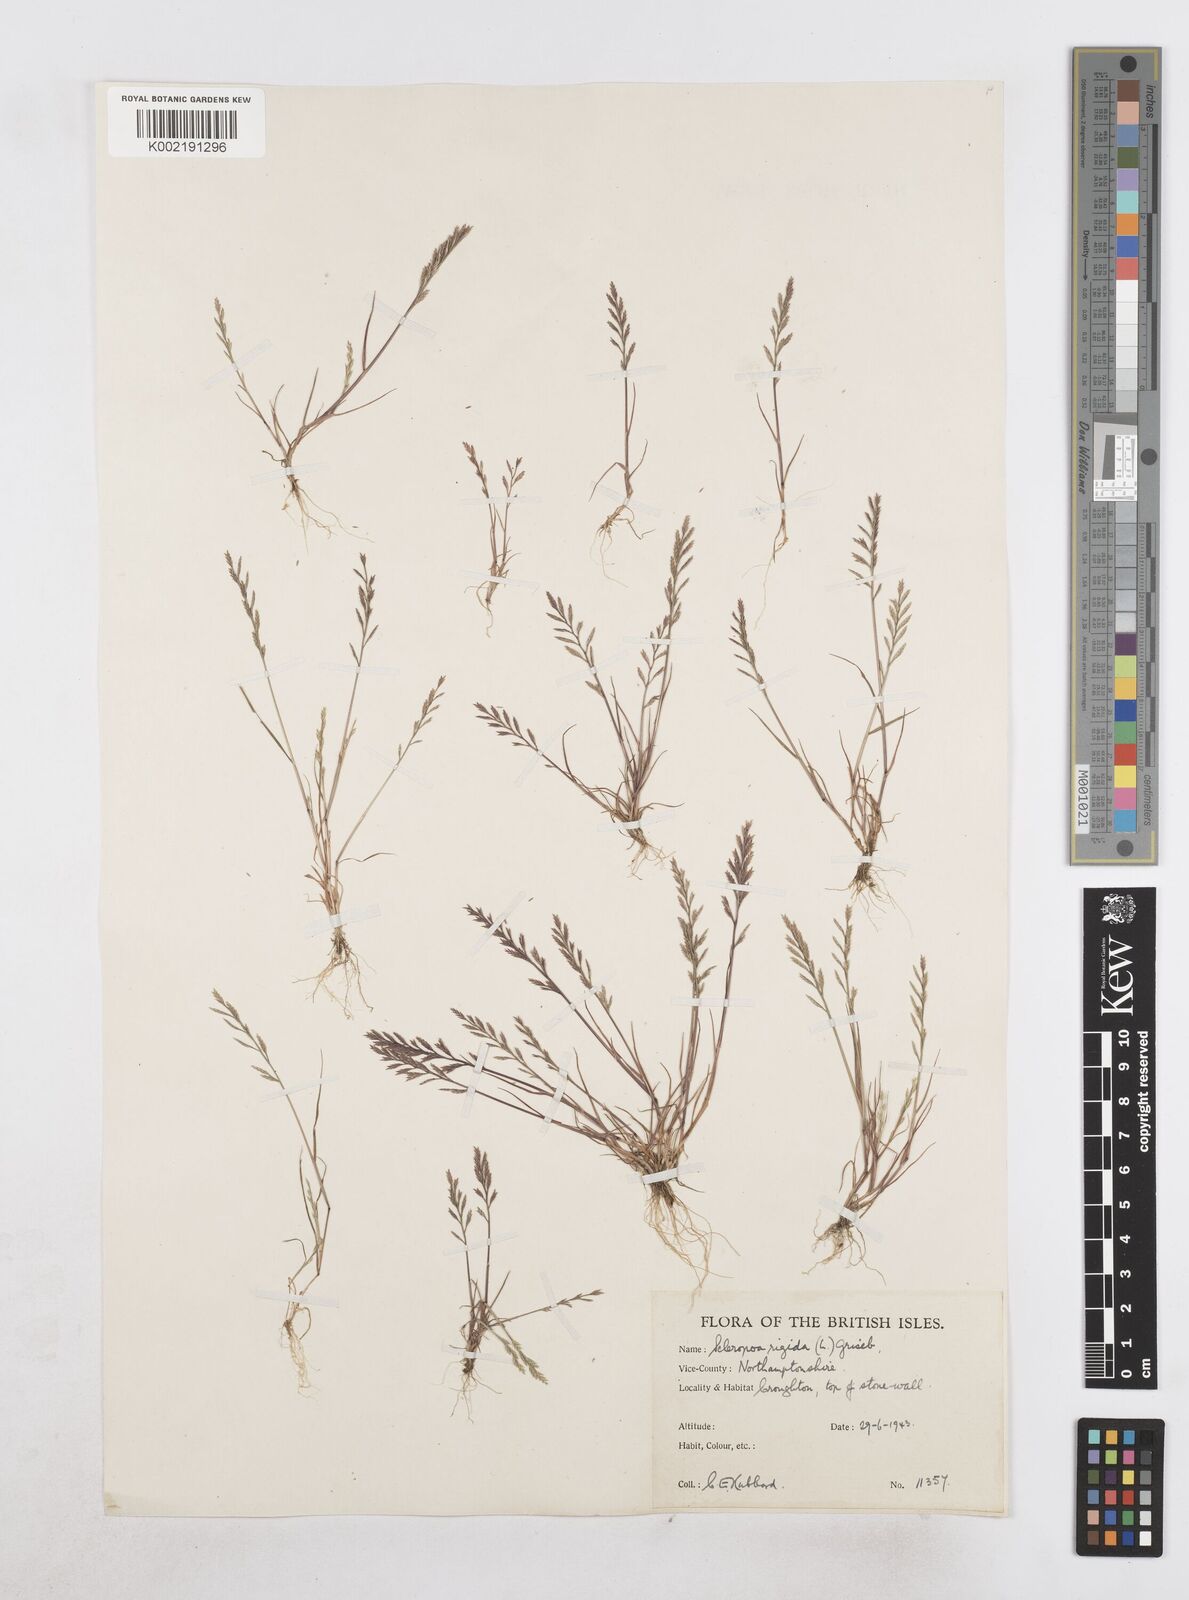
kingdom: Plantae
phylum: Tracheophyta
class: Liliopsida
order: Poales
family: Poaceae
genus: Catapodium
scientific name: Catapodium rigidum
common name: Fern-grass
